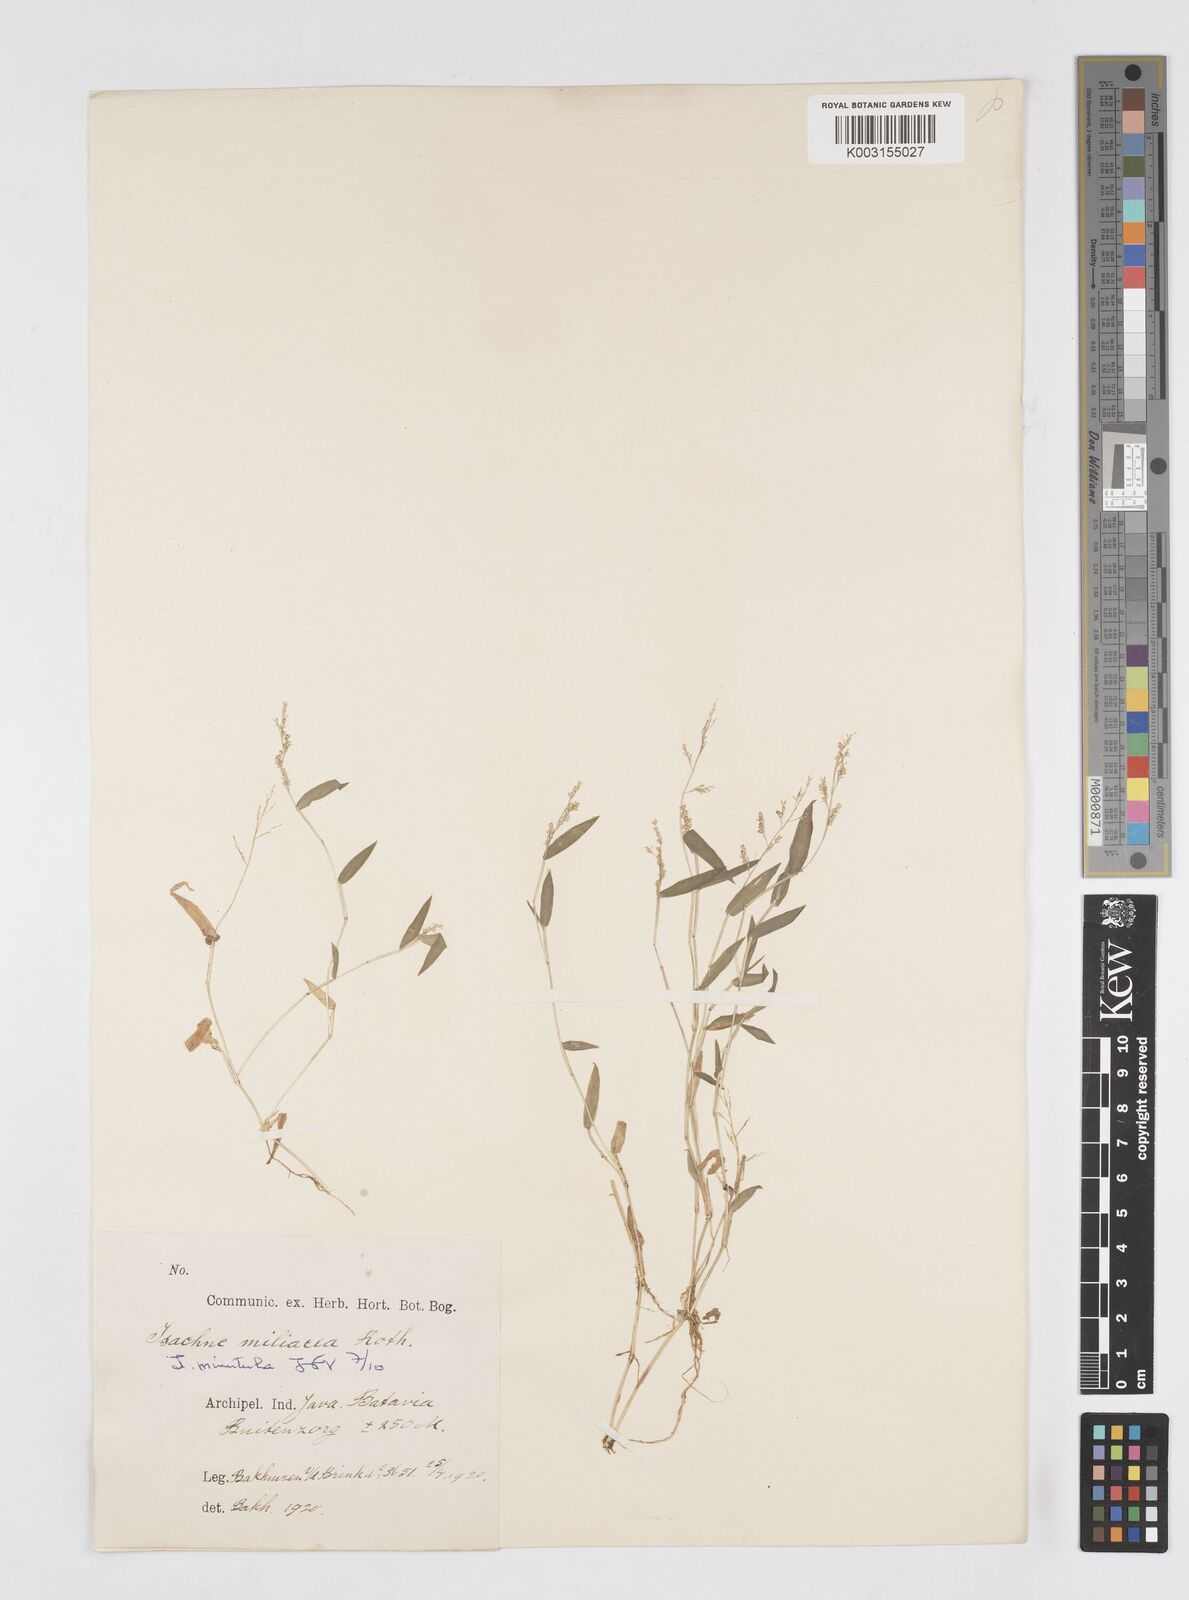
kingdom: Plantae
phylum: Tracheophyta
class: Liliopsida
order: Poales
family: Poaceae
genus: Isachne
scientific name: Isachne globosa
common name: Swamp millet
